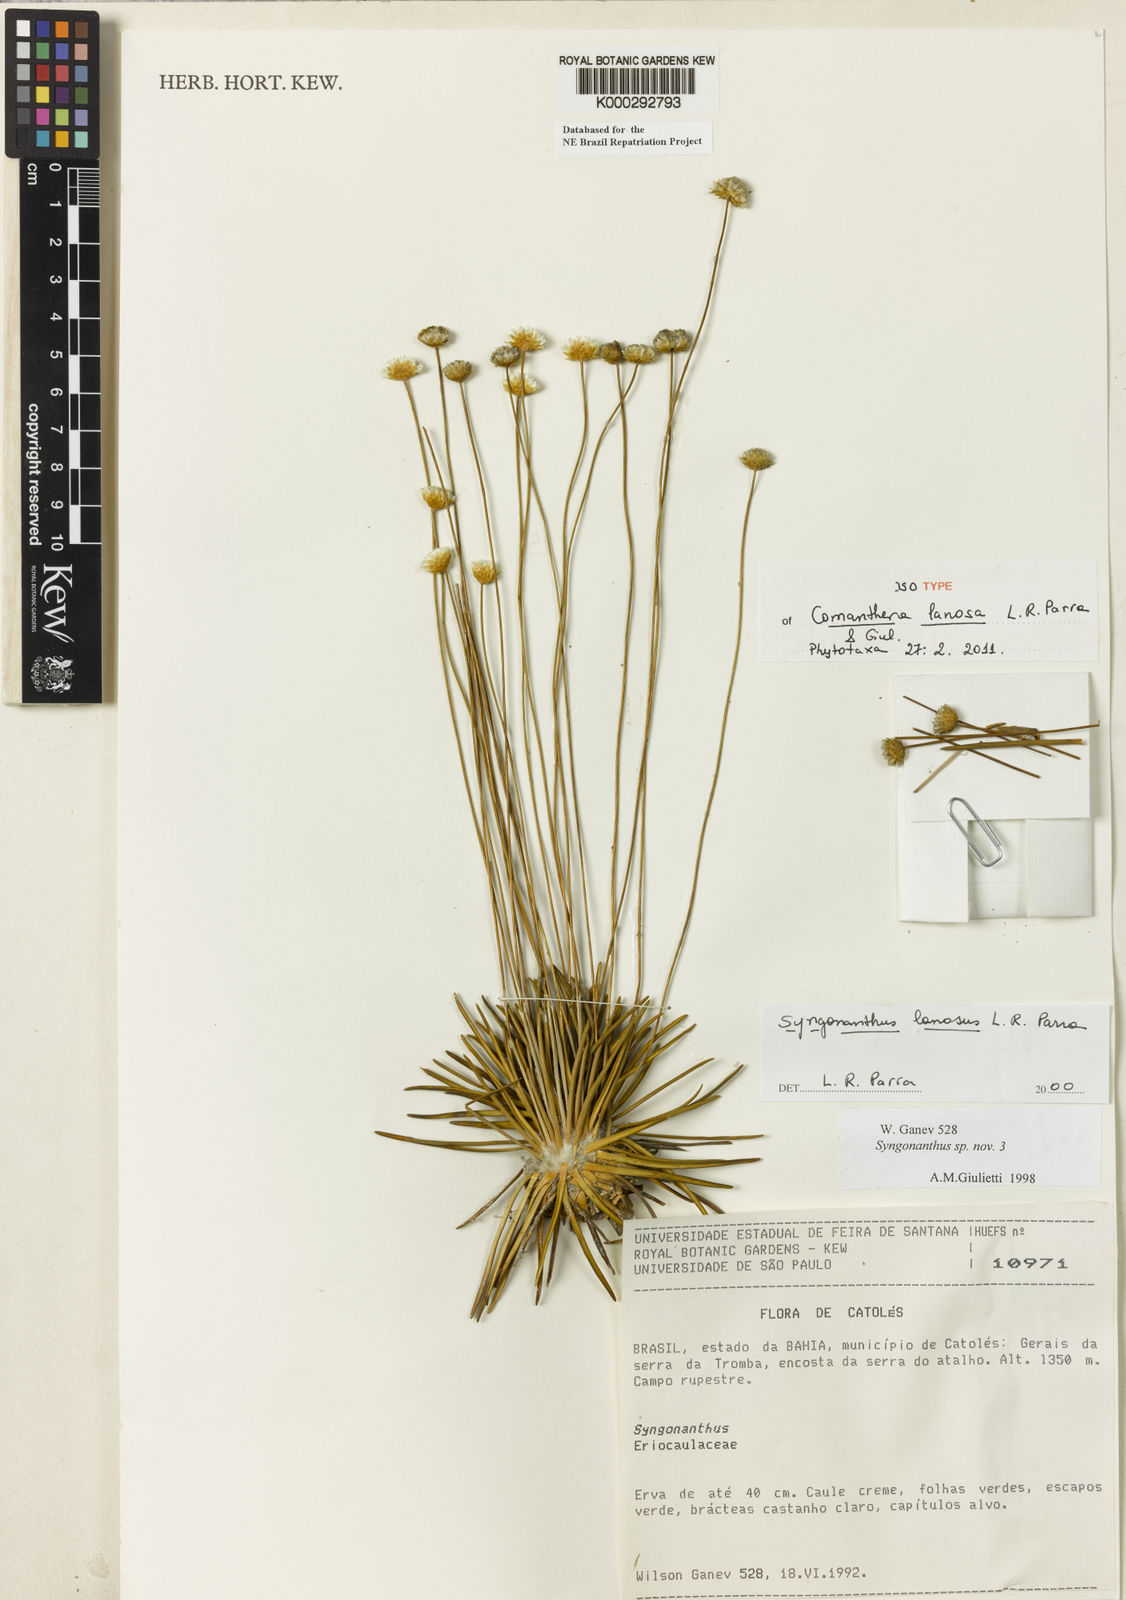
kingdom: Plantae
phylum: Tracheophyta
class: Liliopsida
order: Poales
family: Eriocaulaceae
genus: Comanthera
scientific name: Comanthera lanosa
